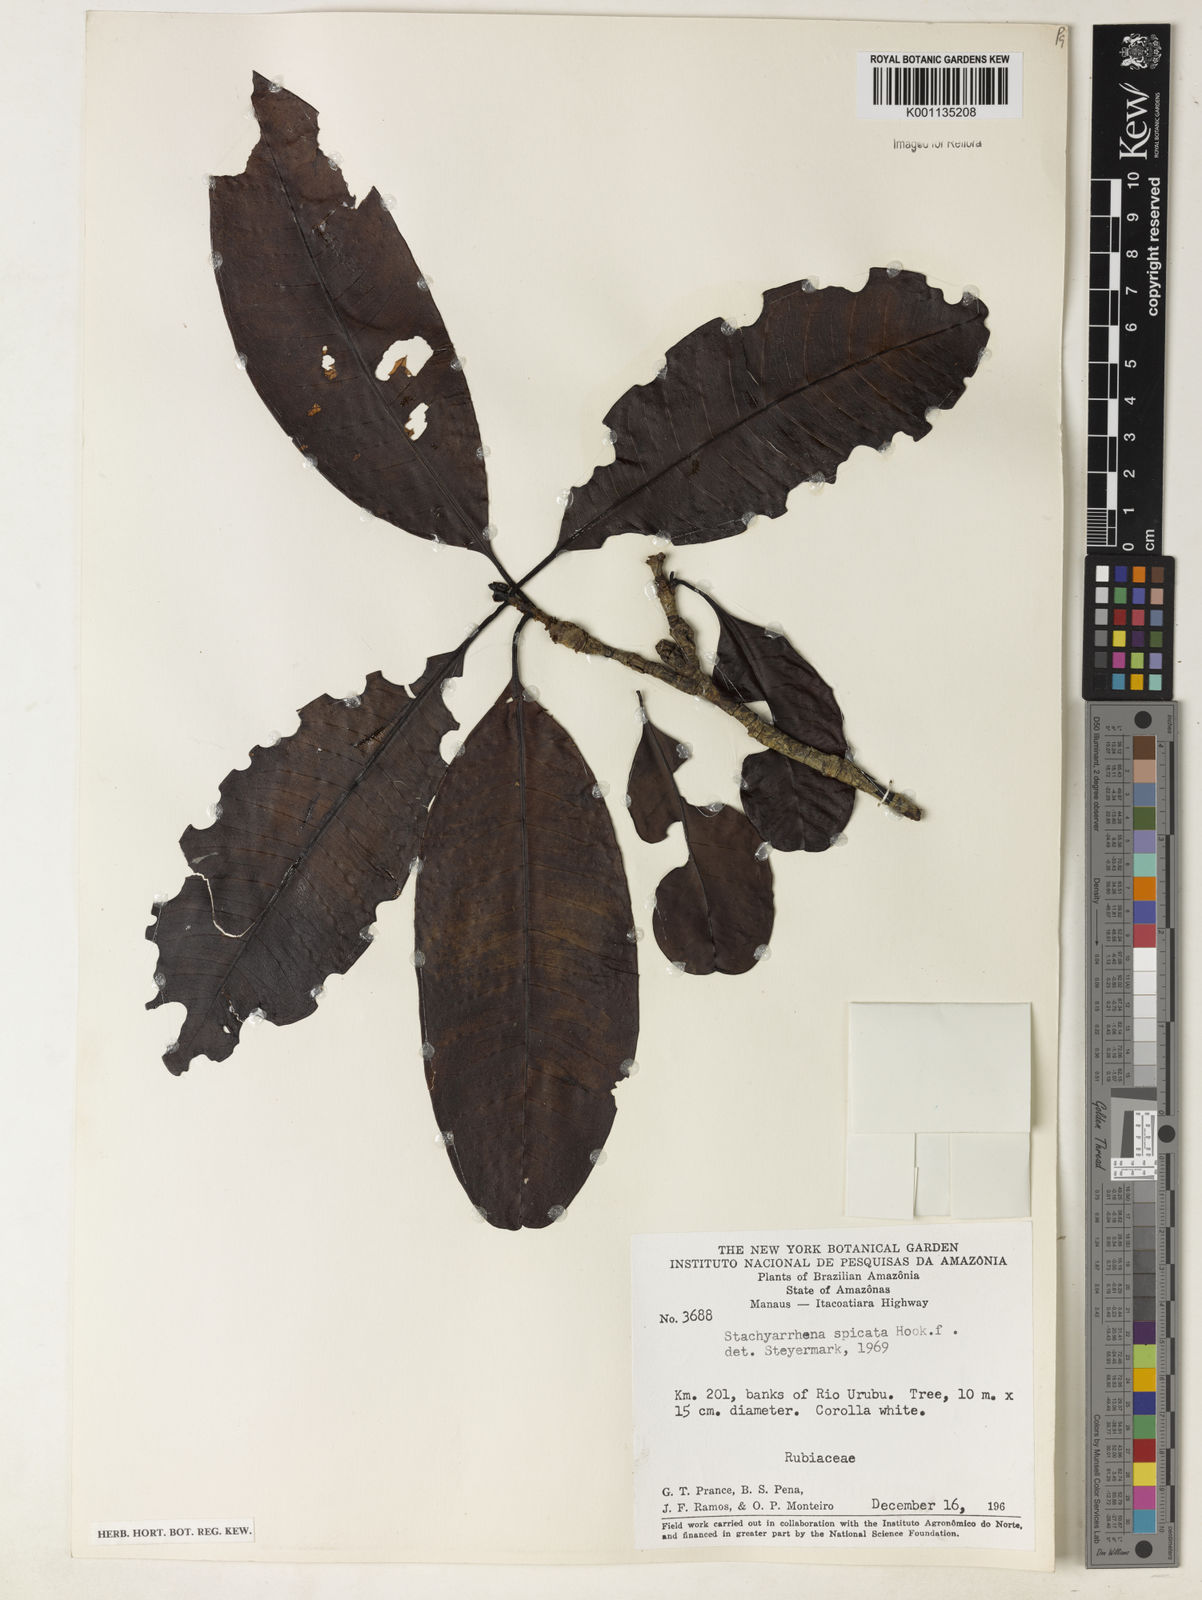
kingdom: Plantae
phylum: Tracheophyta
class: Magnoliopsida
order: Gentianales
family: Rubiaceae
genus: Stachyarrhena
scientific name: Stachyarrhena spicata
